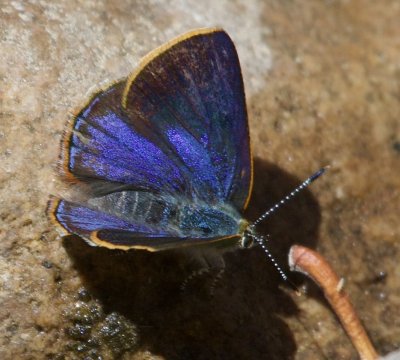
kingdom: Animalia
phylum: Arthropoda
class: Insecta
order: Lepidoptera
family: Lycaenidae
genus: Erora
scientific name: Erora quaderna
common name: Arizona Hairstreak
